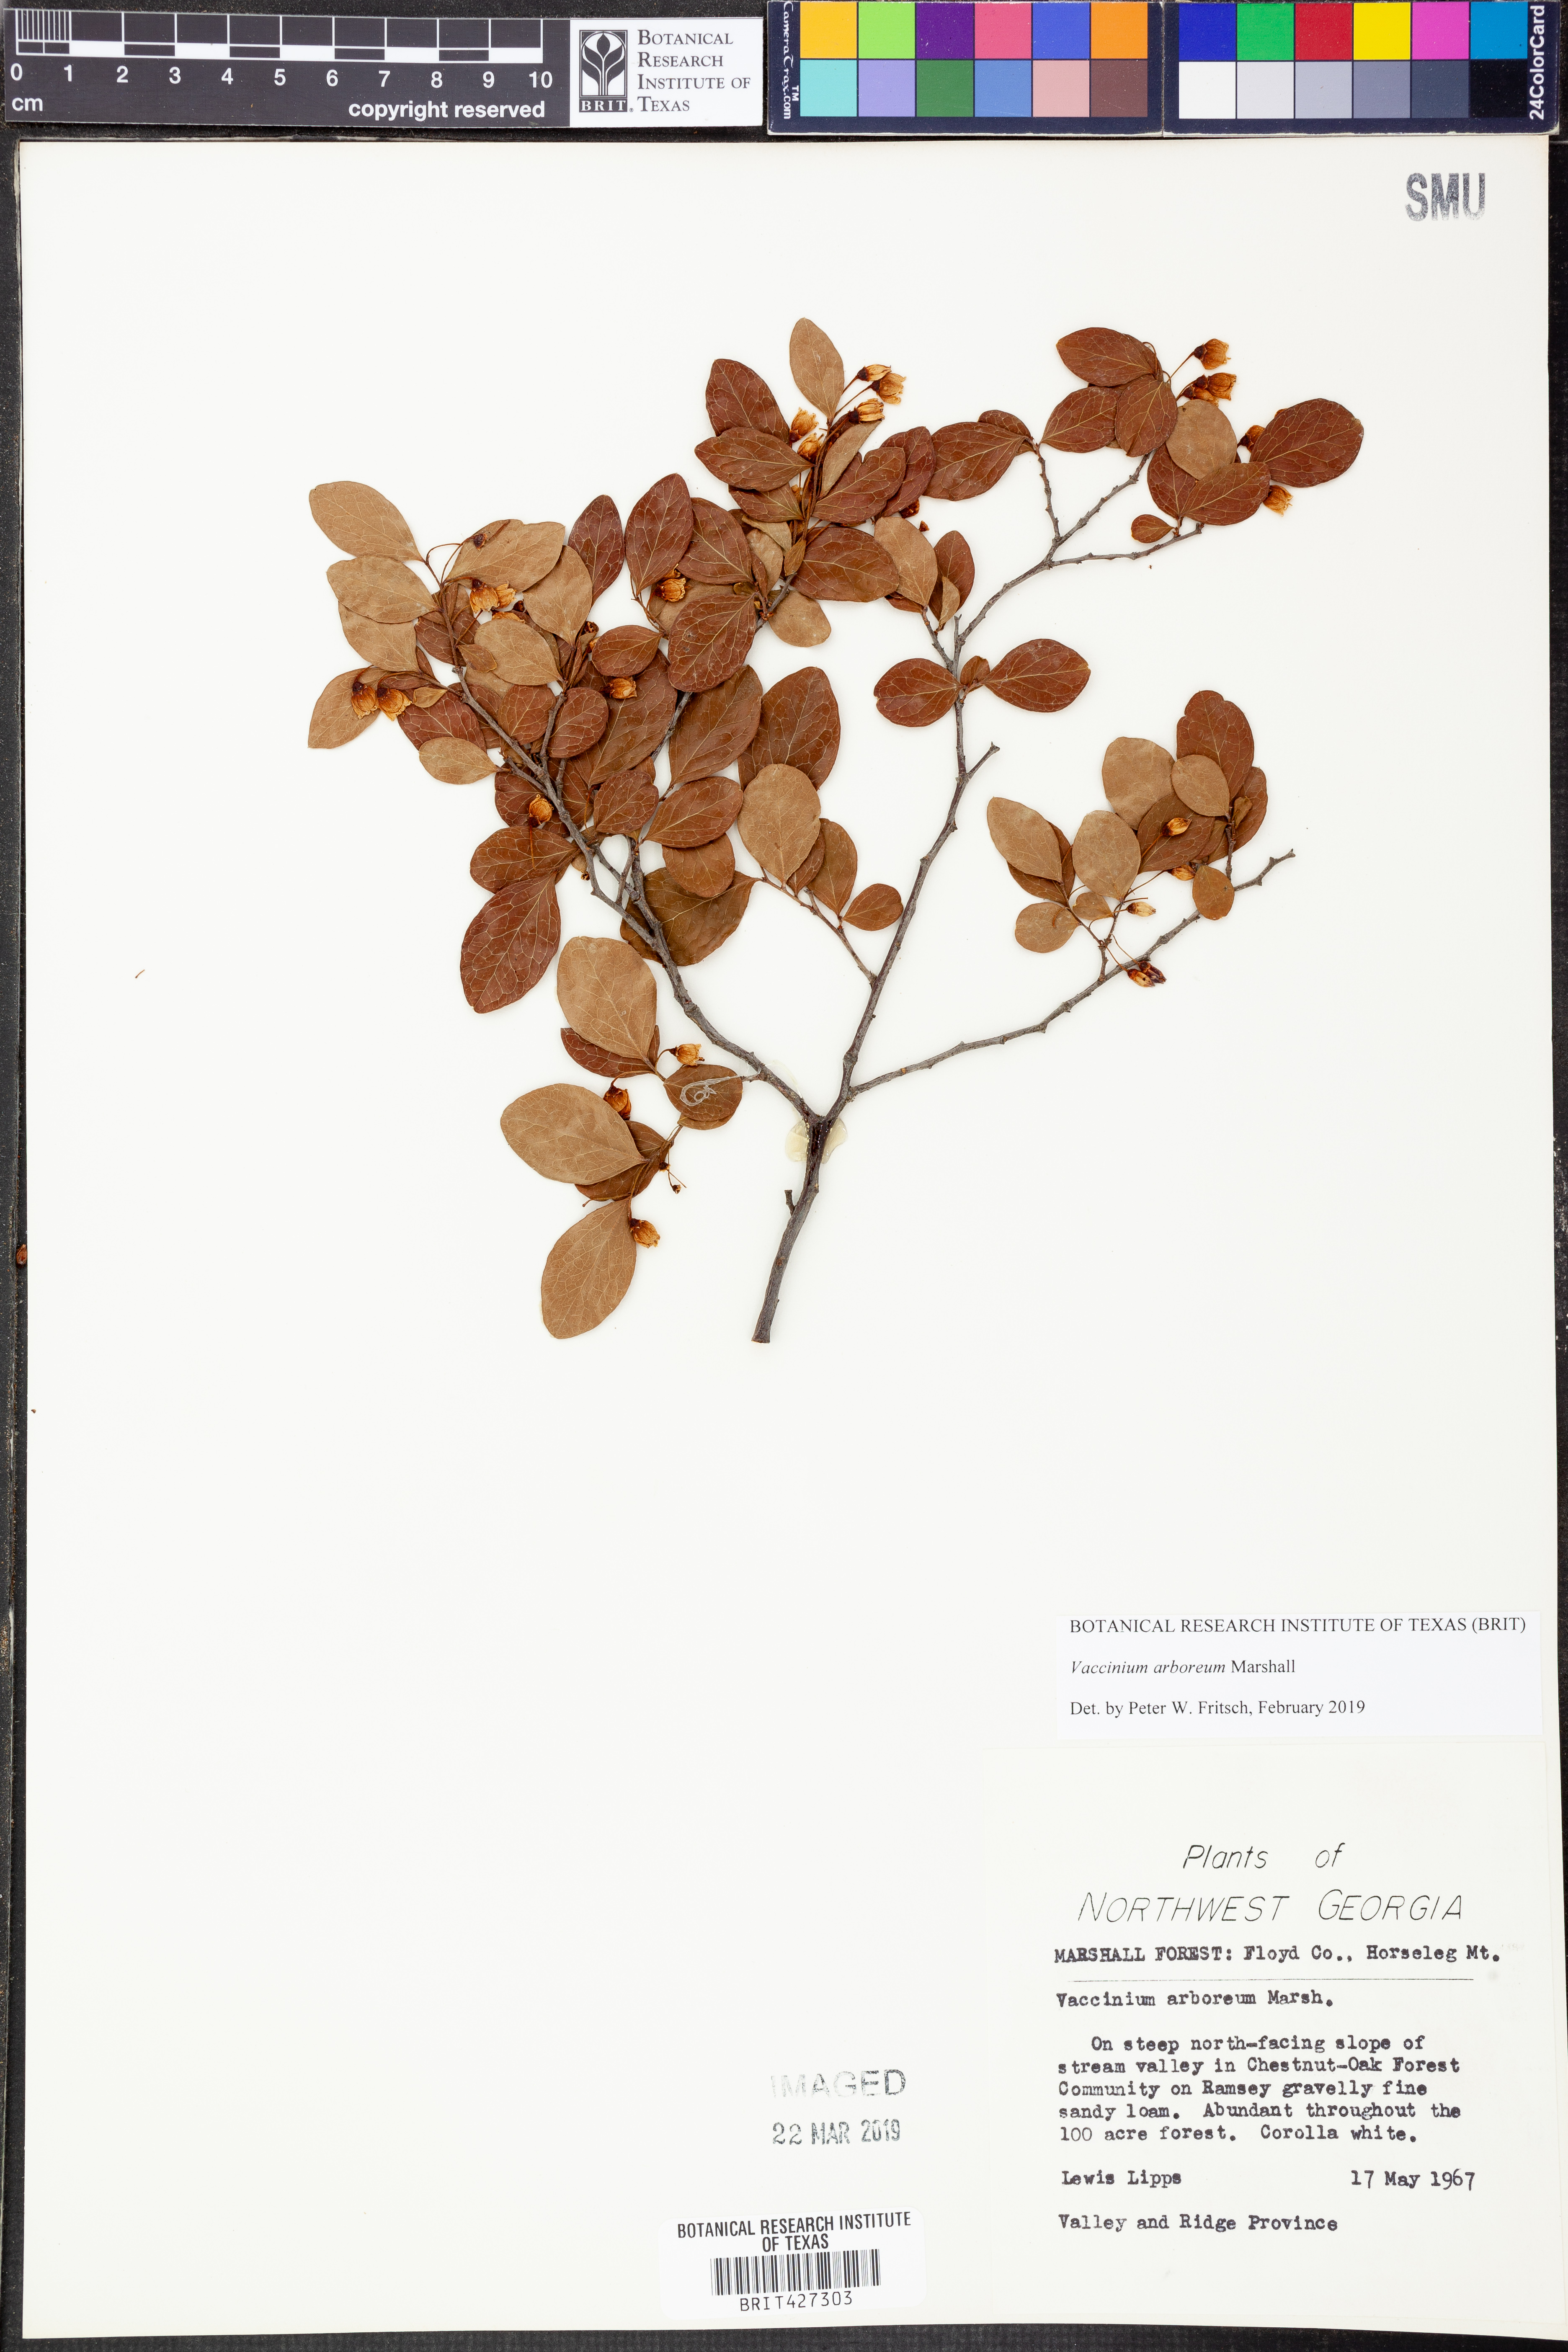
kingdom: Plantae
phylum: Tracheophyta
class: Magnoliopsida
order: Ericales
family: Ericaceae
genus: Vaccinium
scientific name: Vaccinium arboreum
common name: Farkleberry
